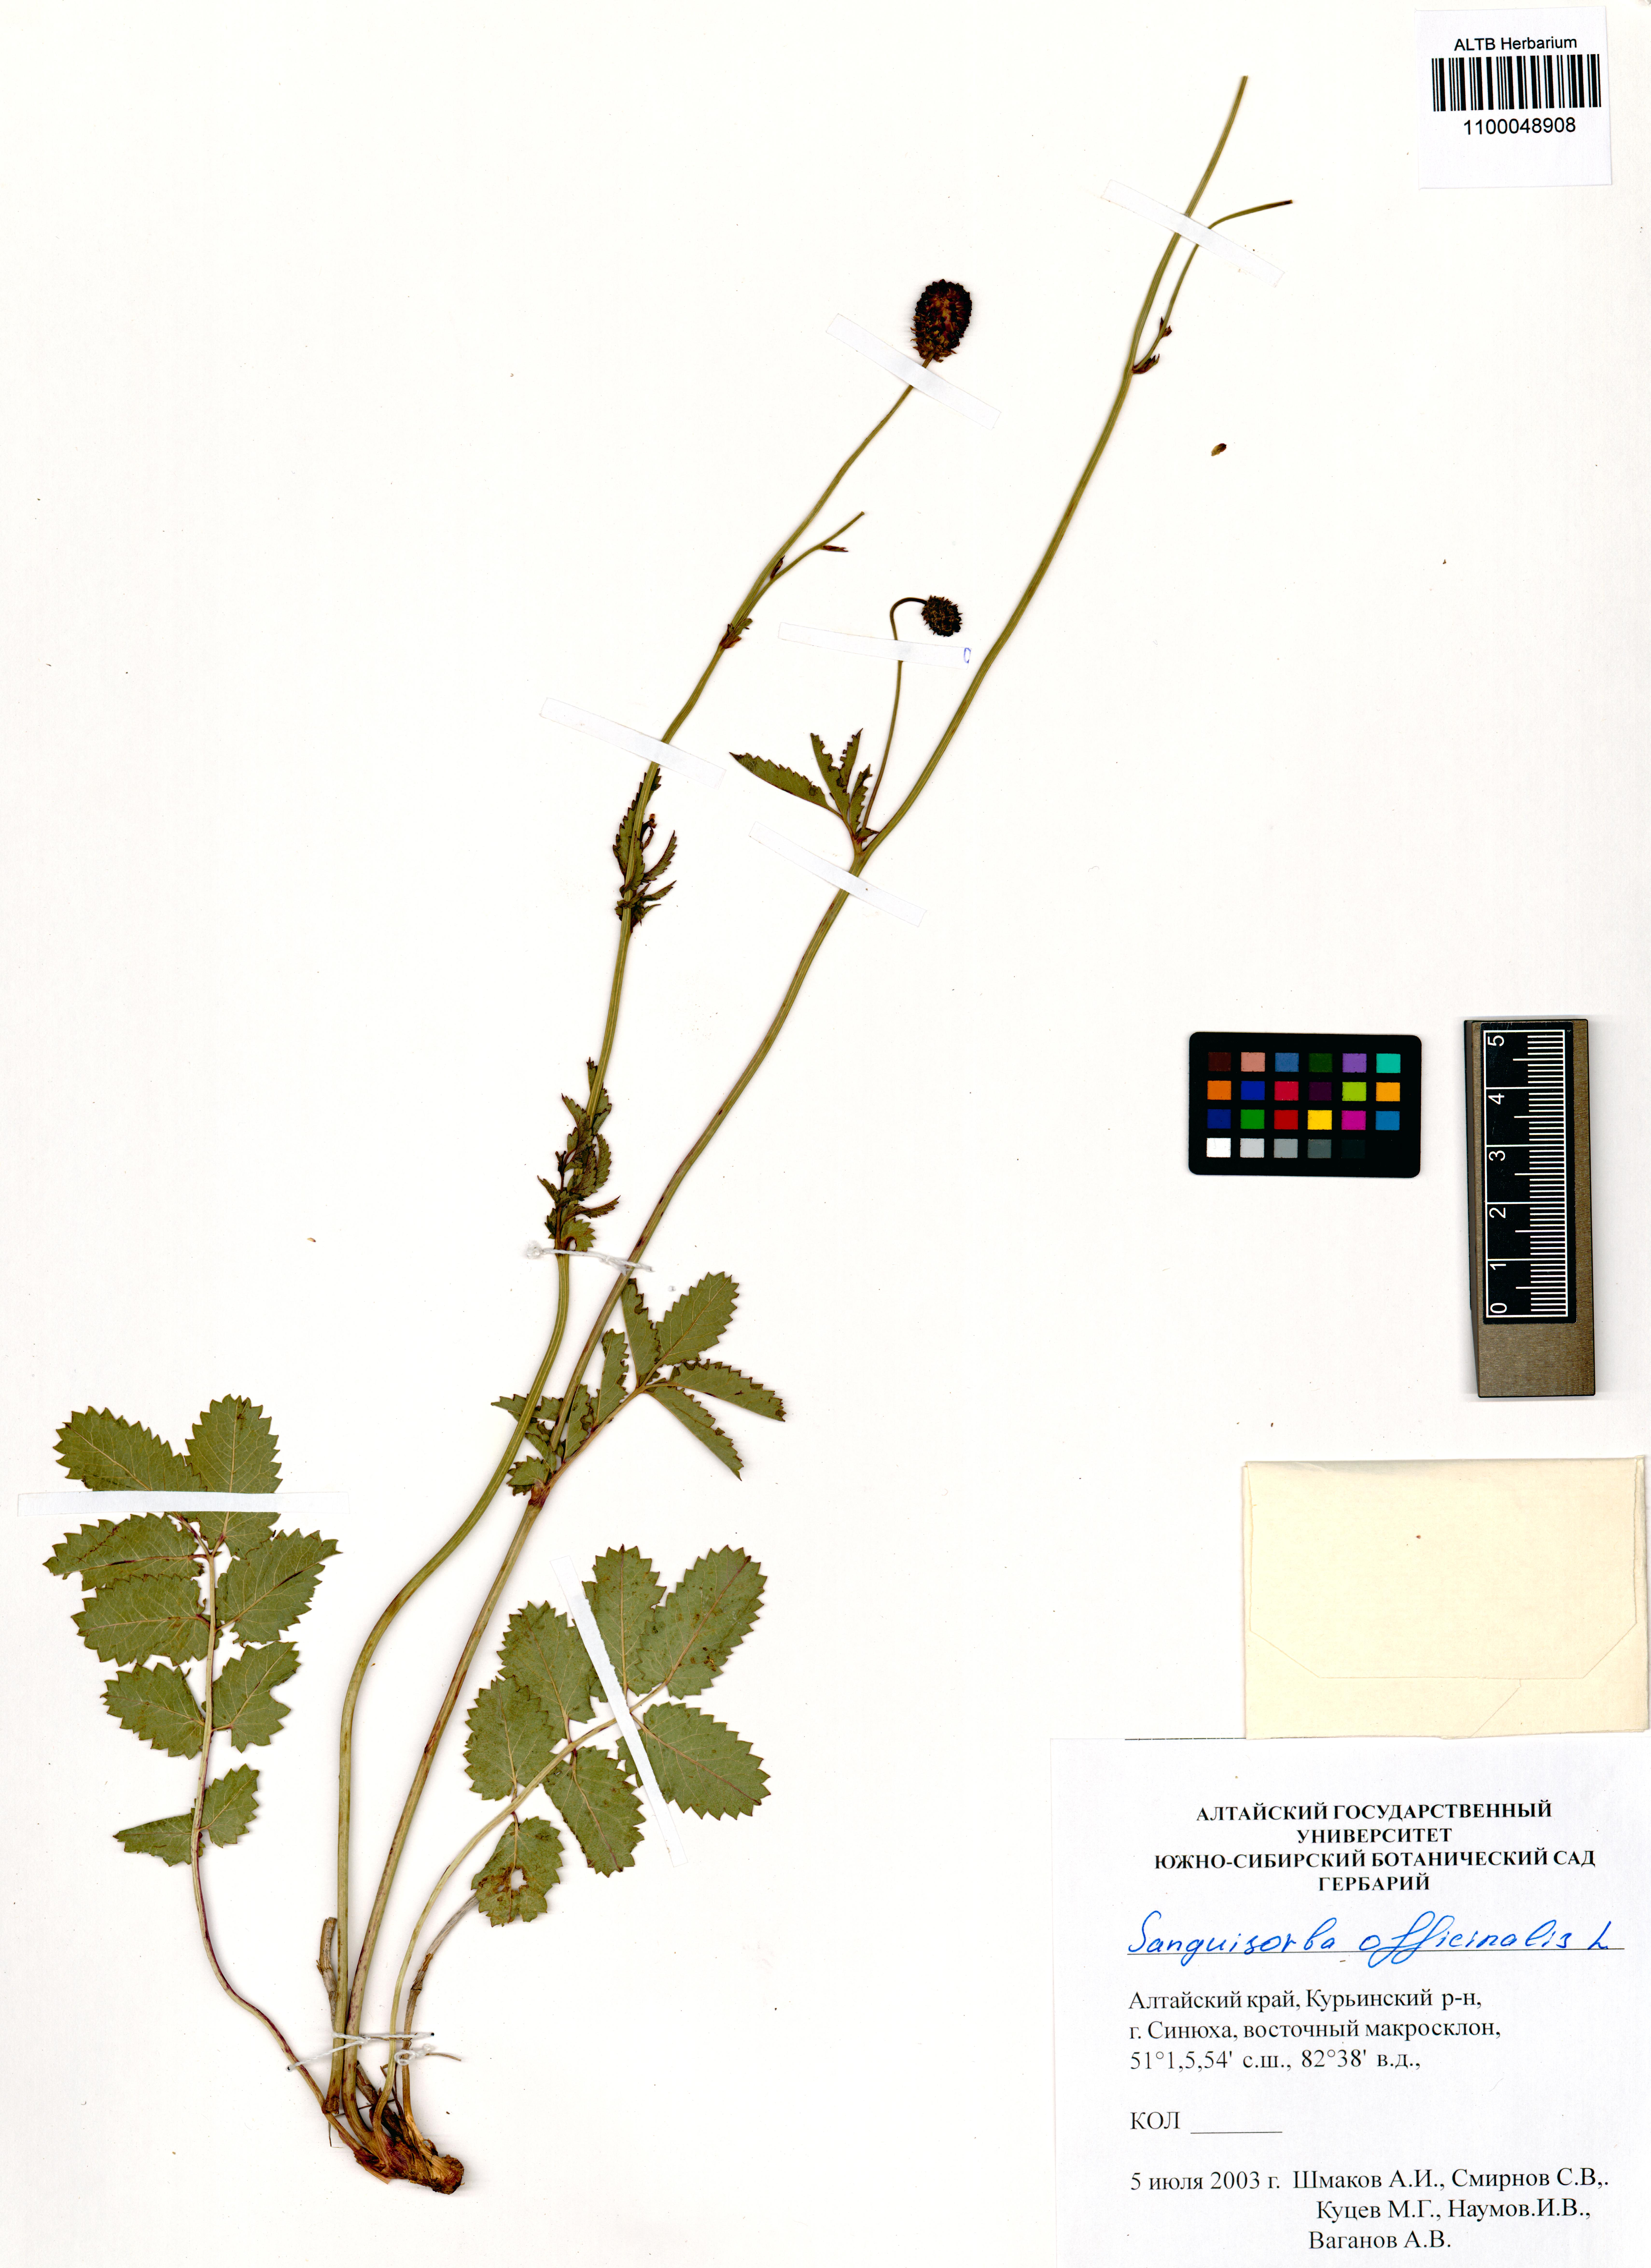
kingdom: Plantae
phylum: Tracheophyta
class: Magnoliopsida
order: Rosales
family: Rosaceae
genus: Sanguisorba
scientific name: Sanguisorba officinalis
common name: Great burnet
